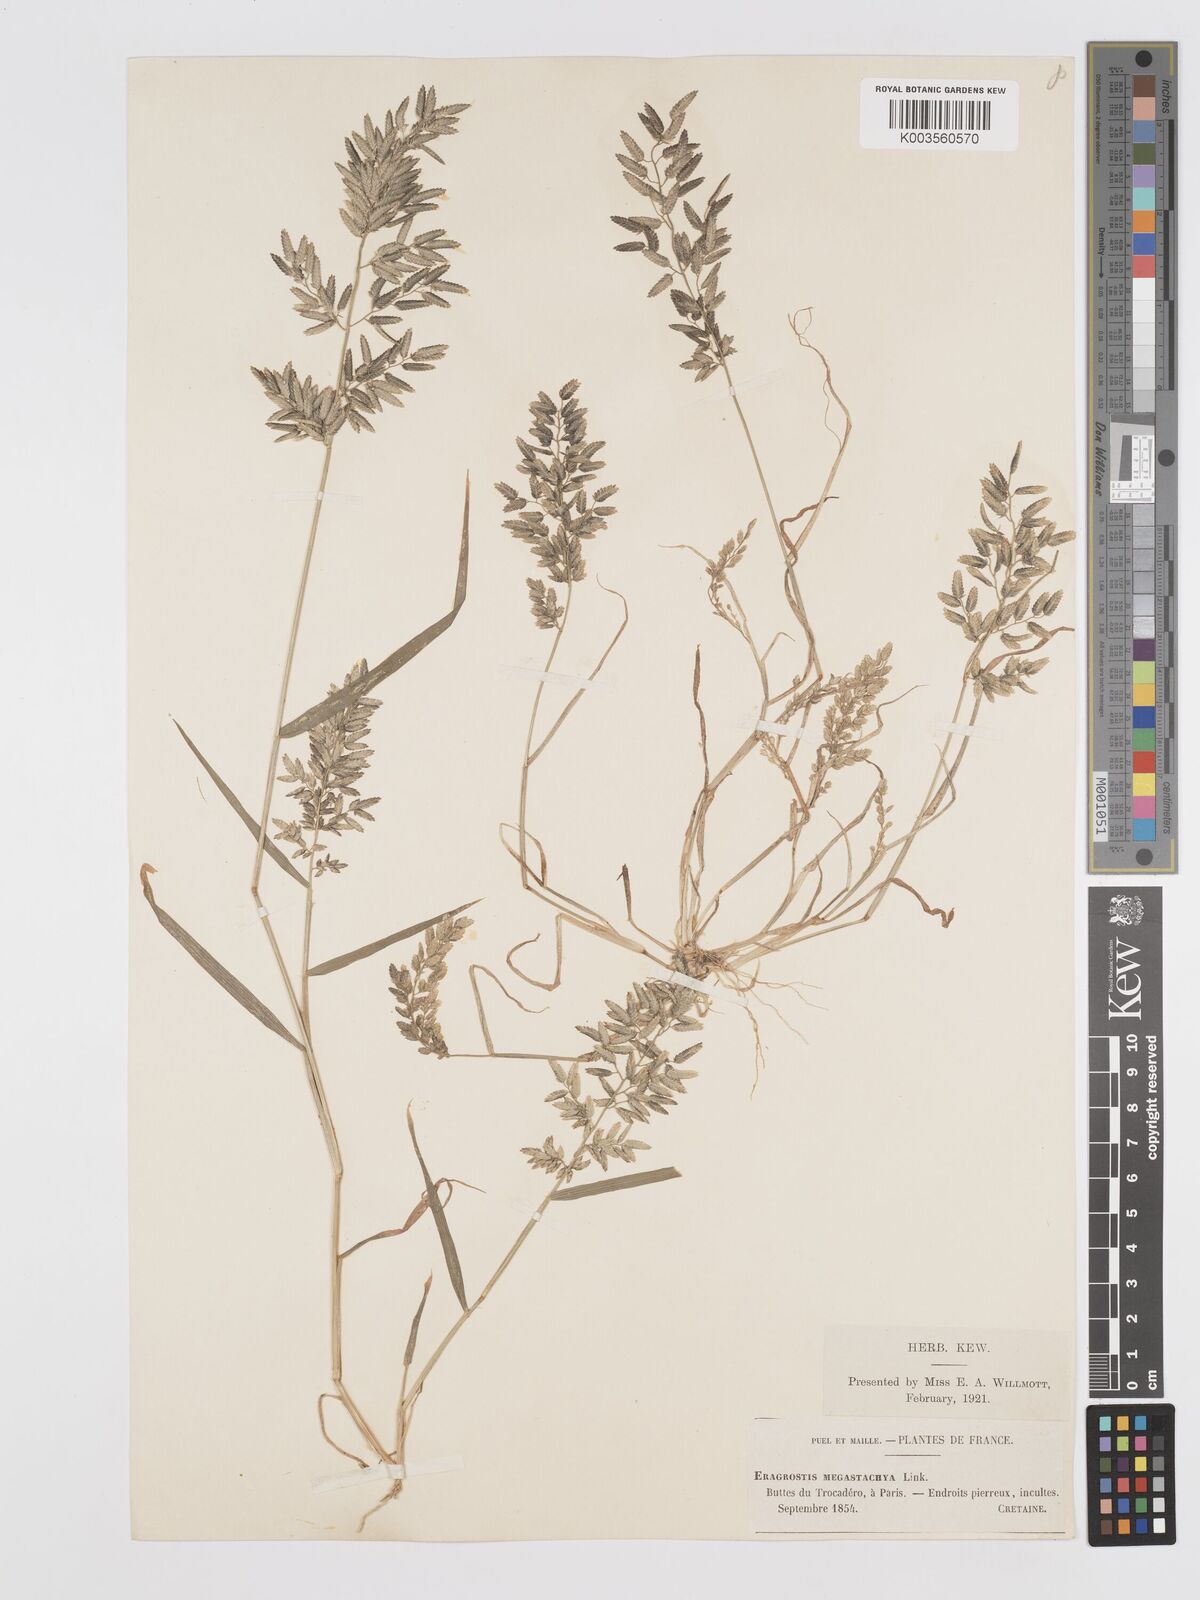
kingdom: Plantae
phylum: Tracheophyta
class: Liliopsida
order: Poales
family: Poaceae
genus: Eragrostis
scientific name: Eragrostis cilianensis
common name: Stinkgrass
